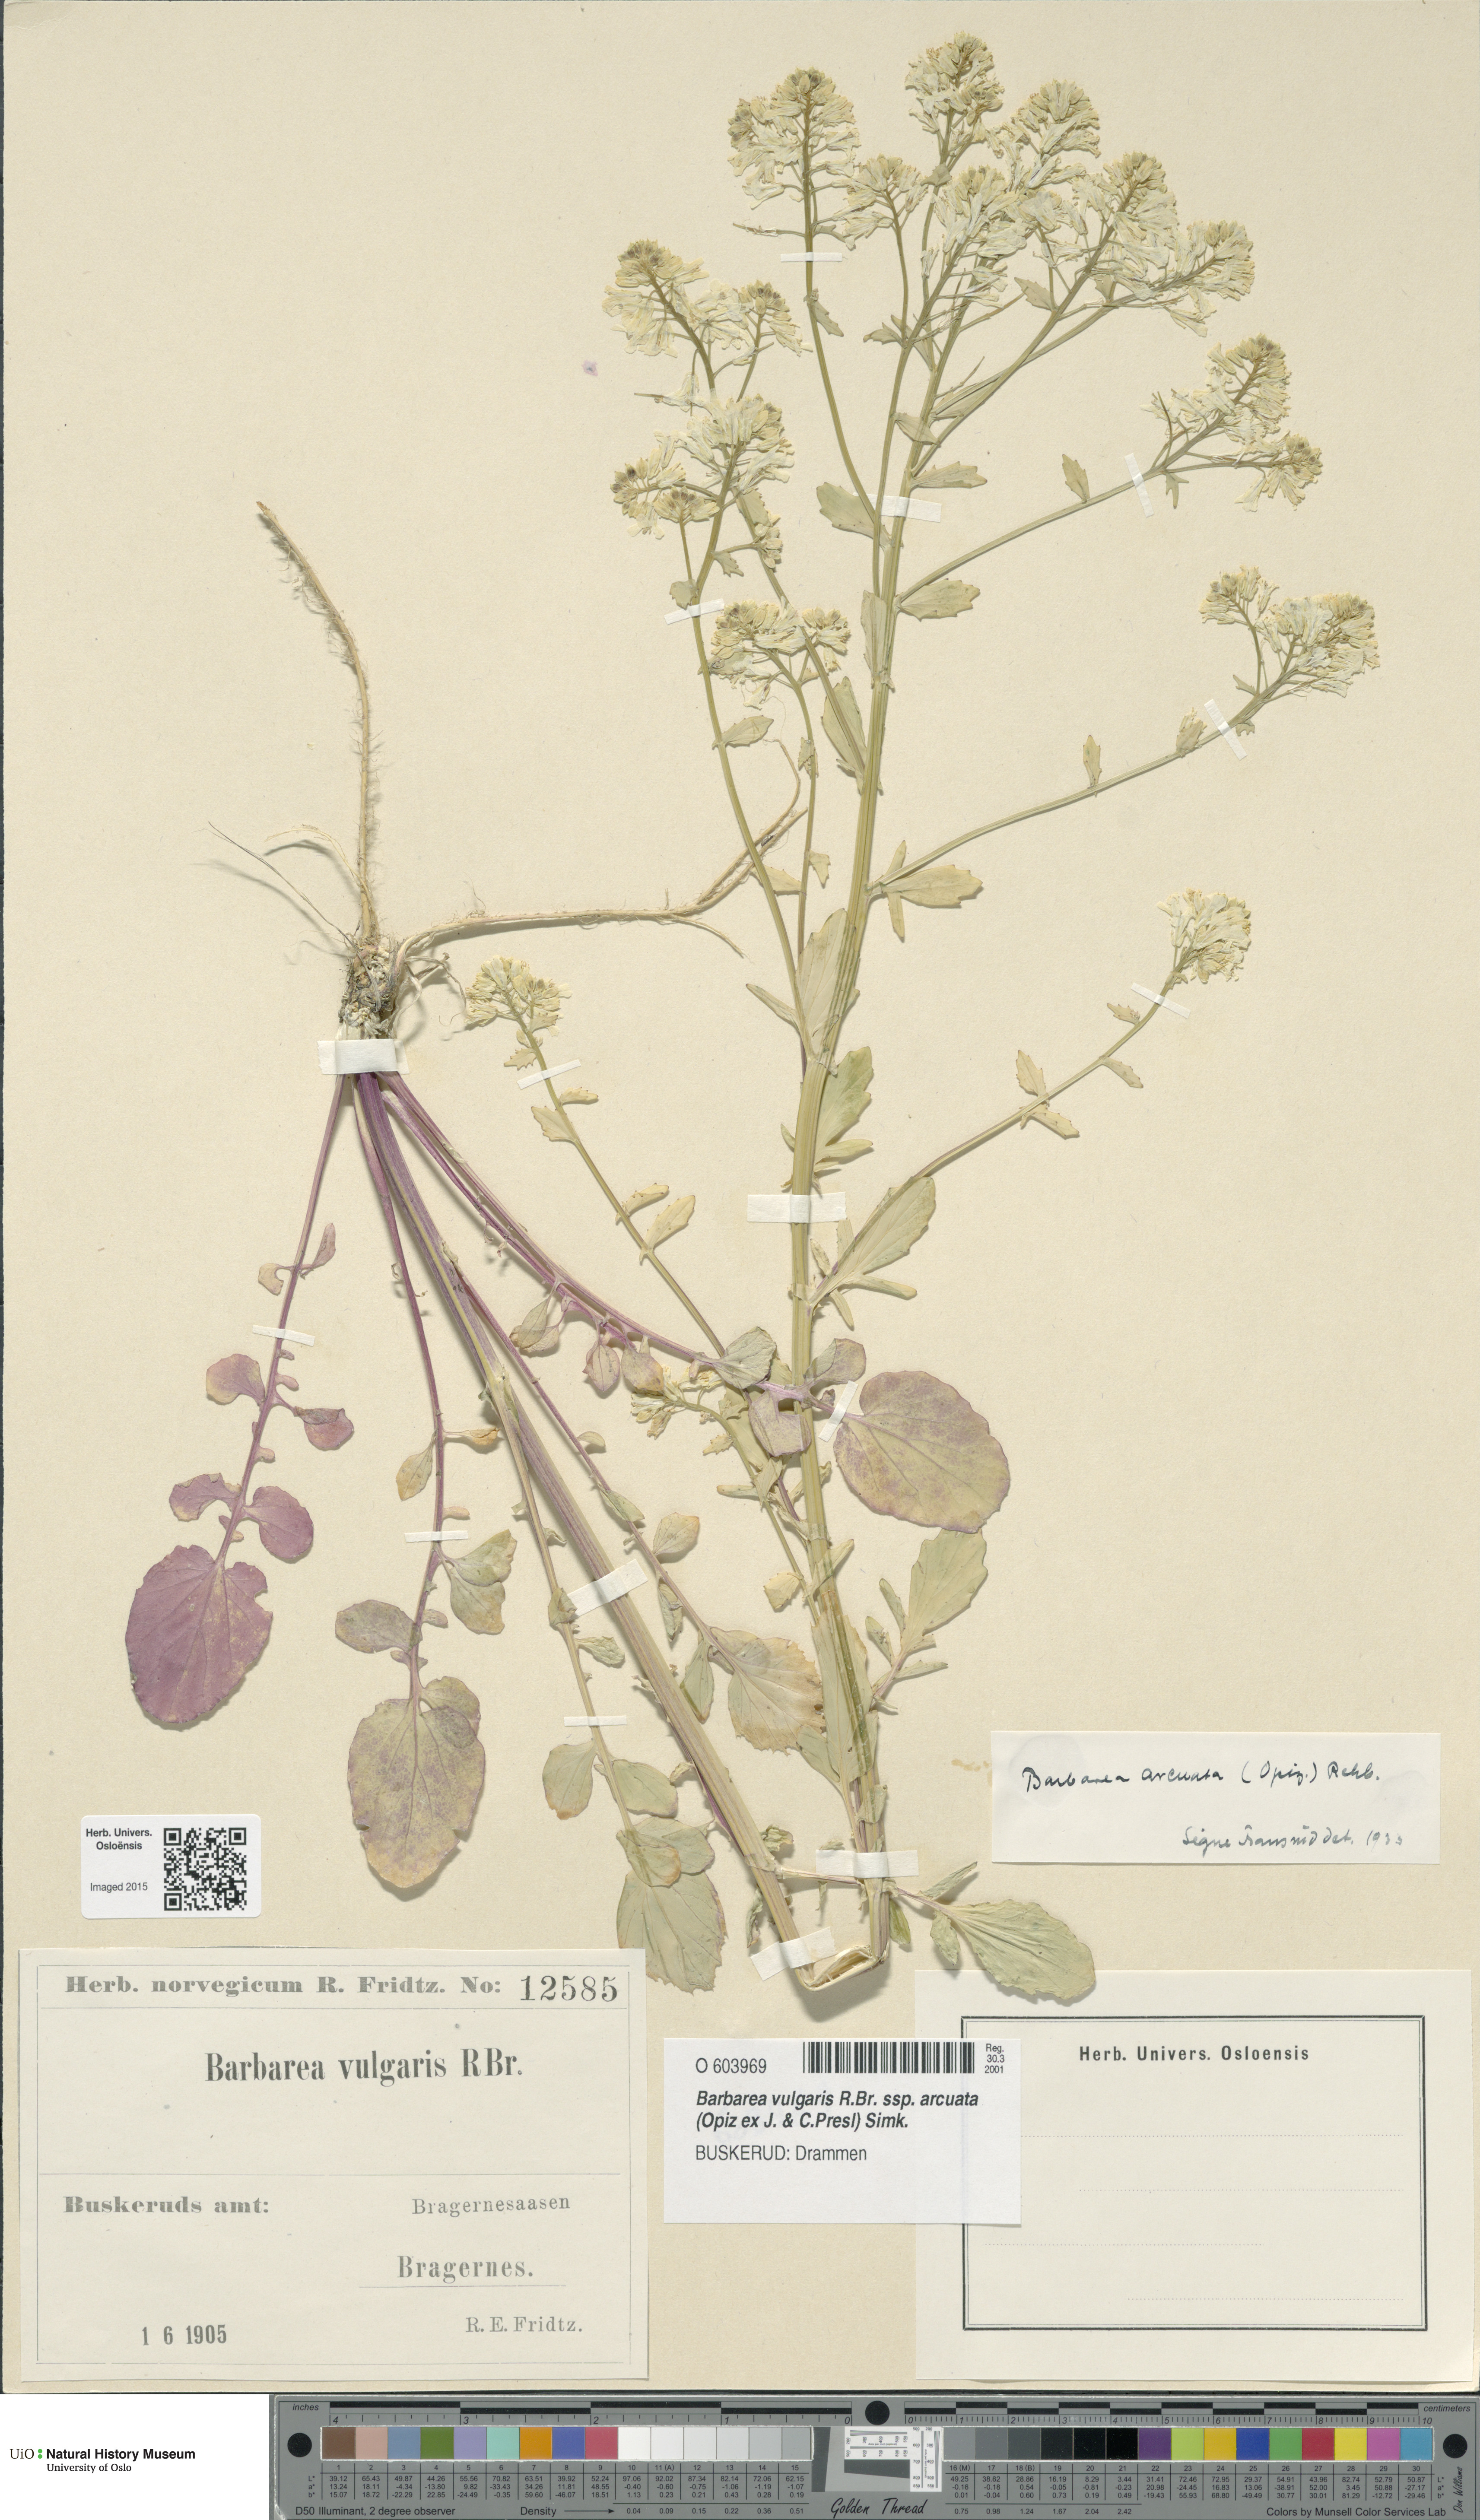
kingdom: Plantae
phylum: Tracheophyta
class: Magnoliopsida
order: Brassicales
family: Brassicaceae
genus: Barbarea
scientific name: Barbarea vulgaris
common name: Cressy-greens
